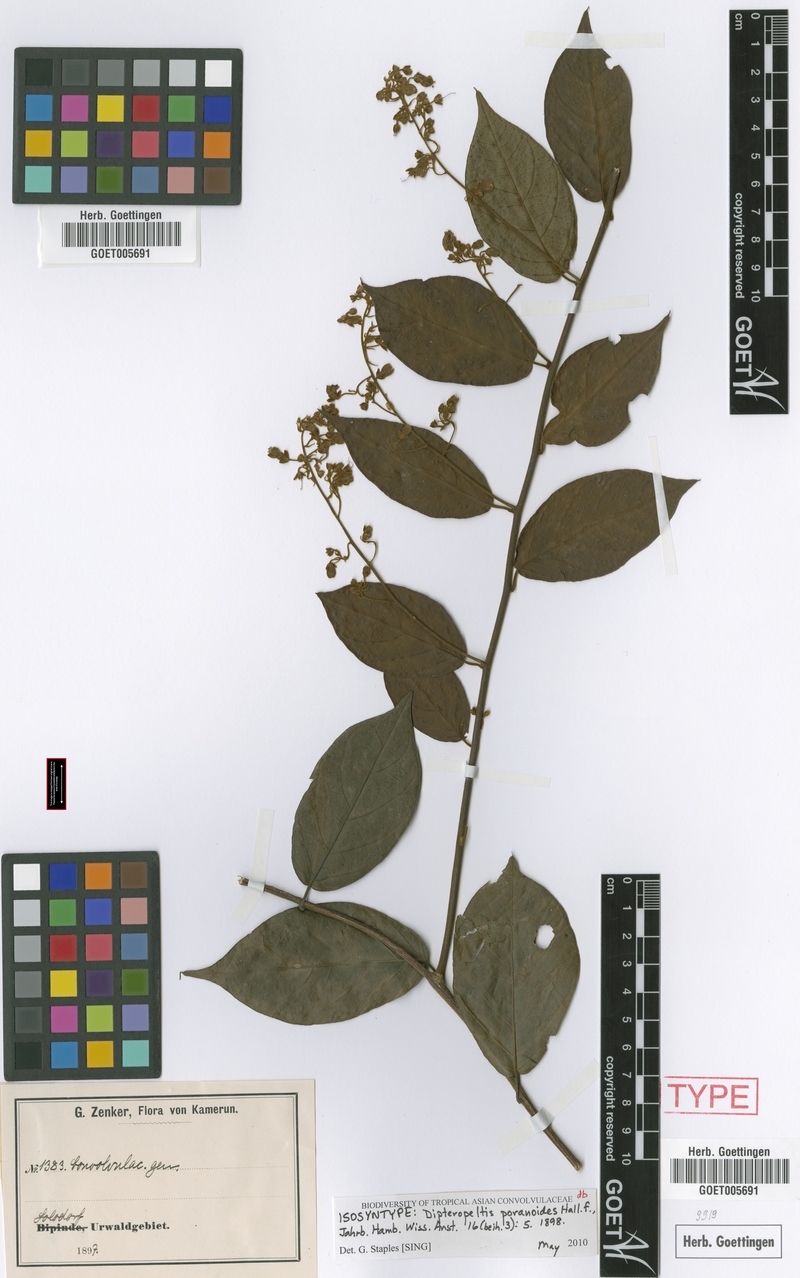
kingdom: Plantae
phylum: Tracheophyta
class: Magnoliopsida
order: Solanales
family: Convolvulaceae
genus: Dipteropeltis
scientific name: Dipteropeltis poranoides
